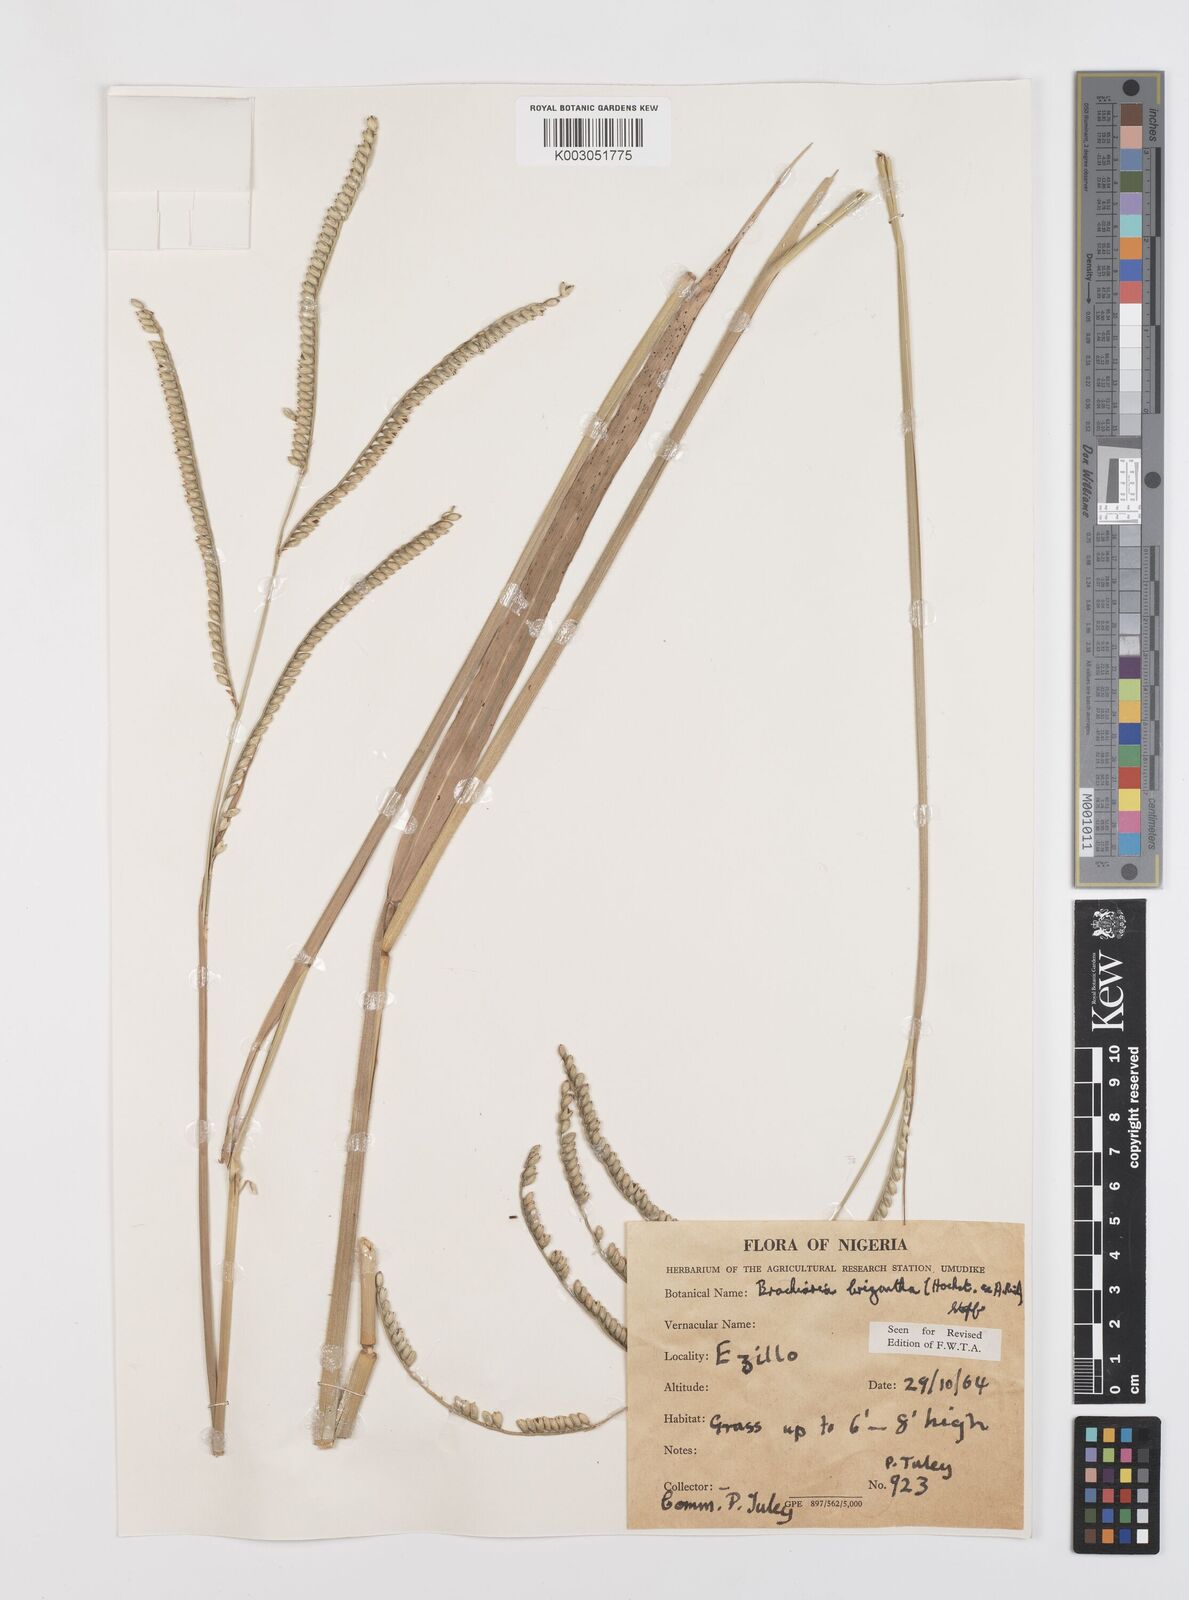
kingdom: Plantae
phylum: Tracheophyta
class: Liliopsida
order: Poales
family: Poaceae
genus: Urochloa
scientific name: Urochloa brizantha
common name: Palisade signalgrass
